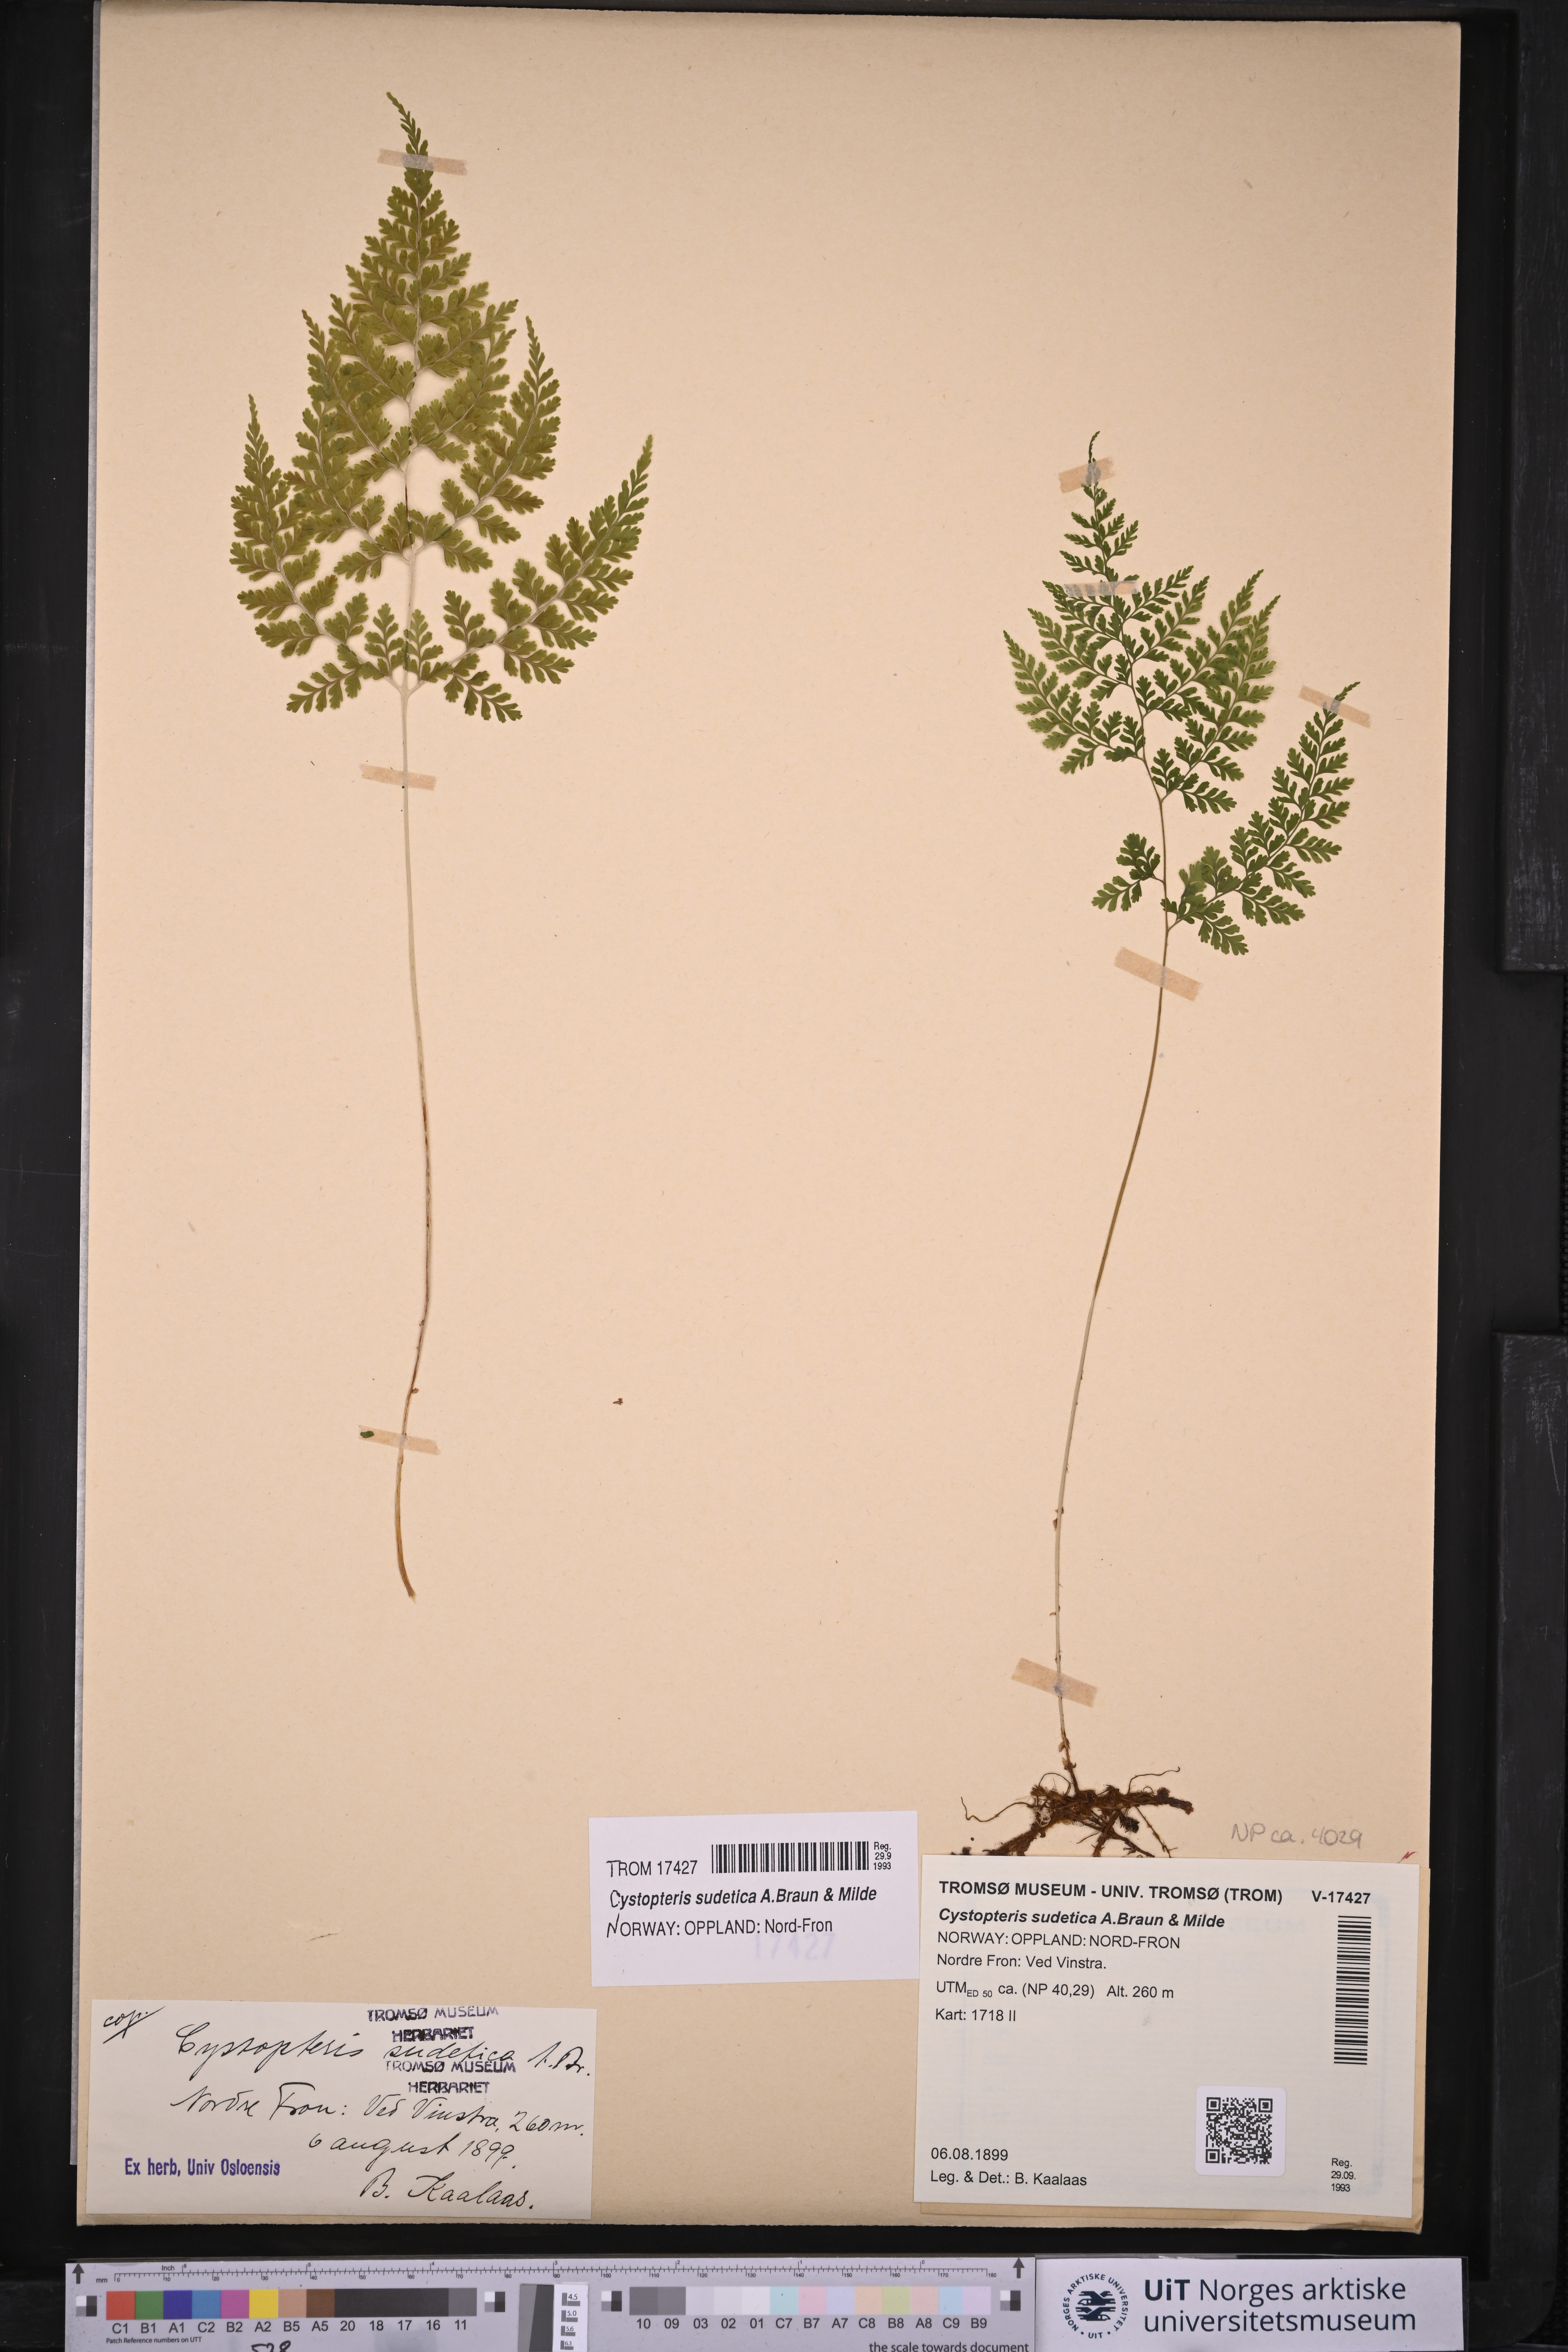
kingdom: Plantae
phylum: Tracheophyta
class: Polypodiopsida
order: Polypodiales
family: Cystopteridaceae
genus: Cystopteris
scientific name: Cystopteris sudetica
